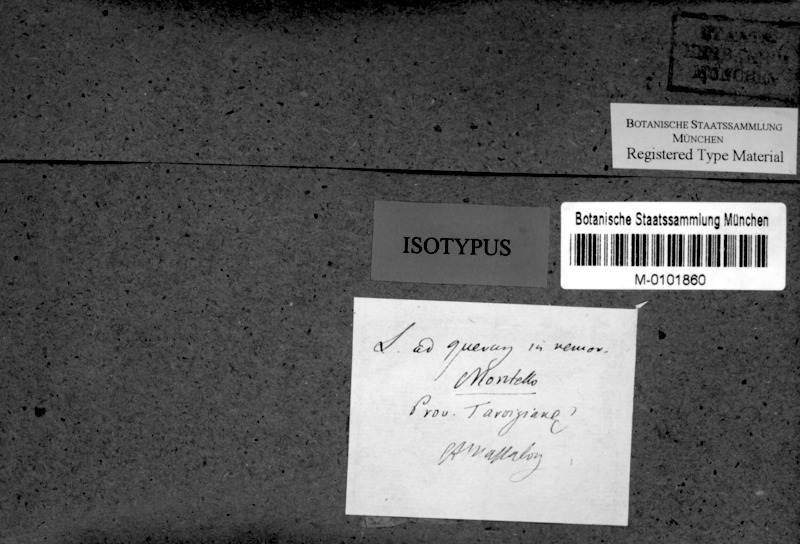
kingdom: Fungi
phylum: Ascomycota
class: Arthoniomycetes
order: Arthoniales
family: Arthoniaceae
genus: Arthonia
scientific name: Arthonia
